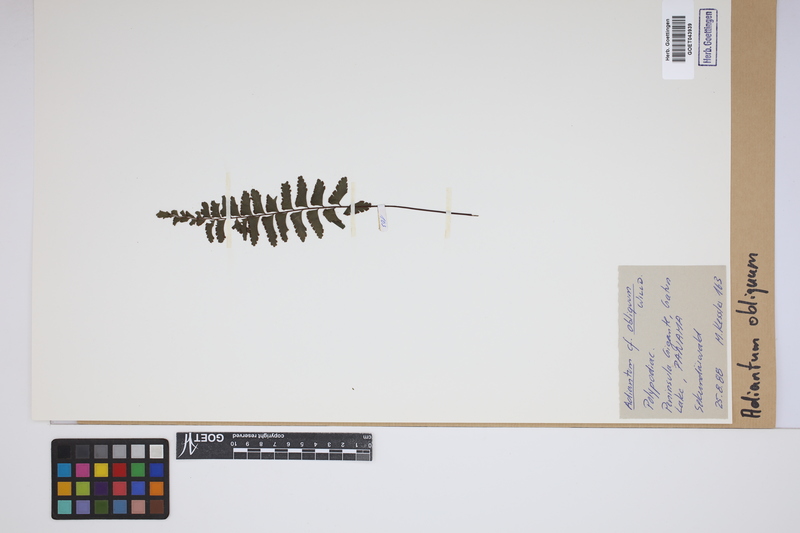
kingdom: Plantae
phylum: Tracheophyta
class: Polypodiopsida
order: Polypodiales
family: Pteridaceae
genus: Adiantum
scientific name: Adiantum obliquum
